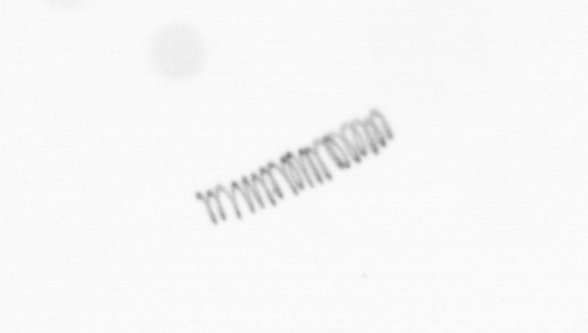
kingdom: Chromista
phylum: Ochrophyta
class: Bacillariophyceae
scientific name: Bacillariophyceae
